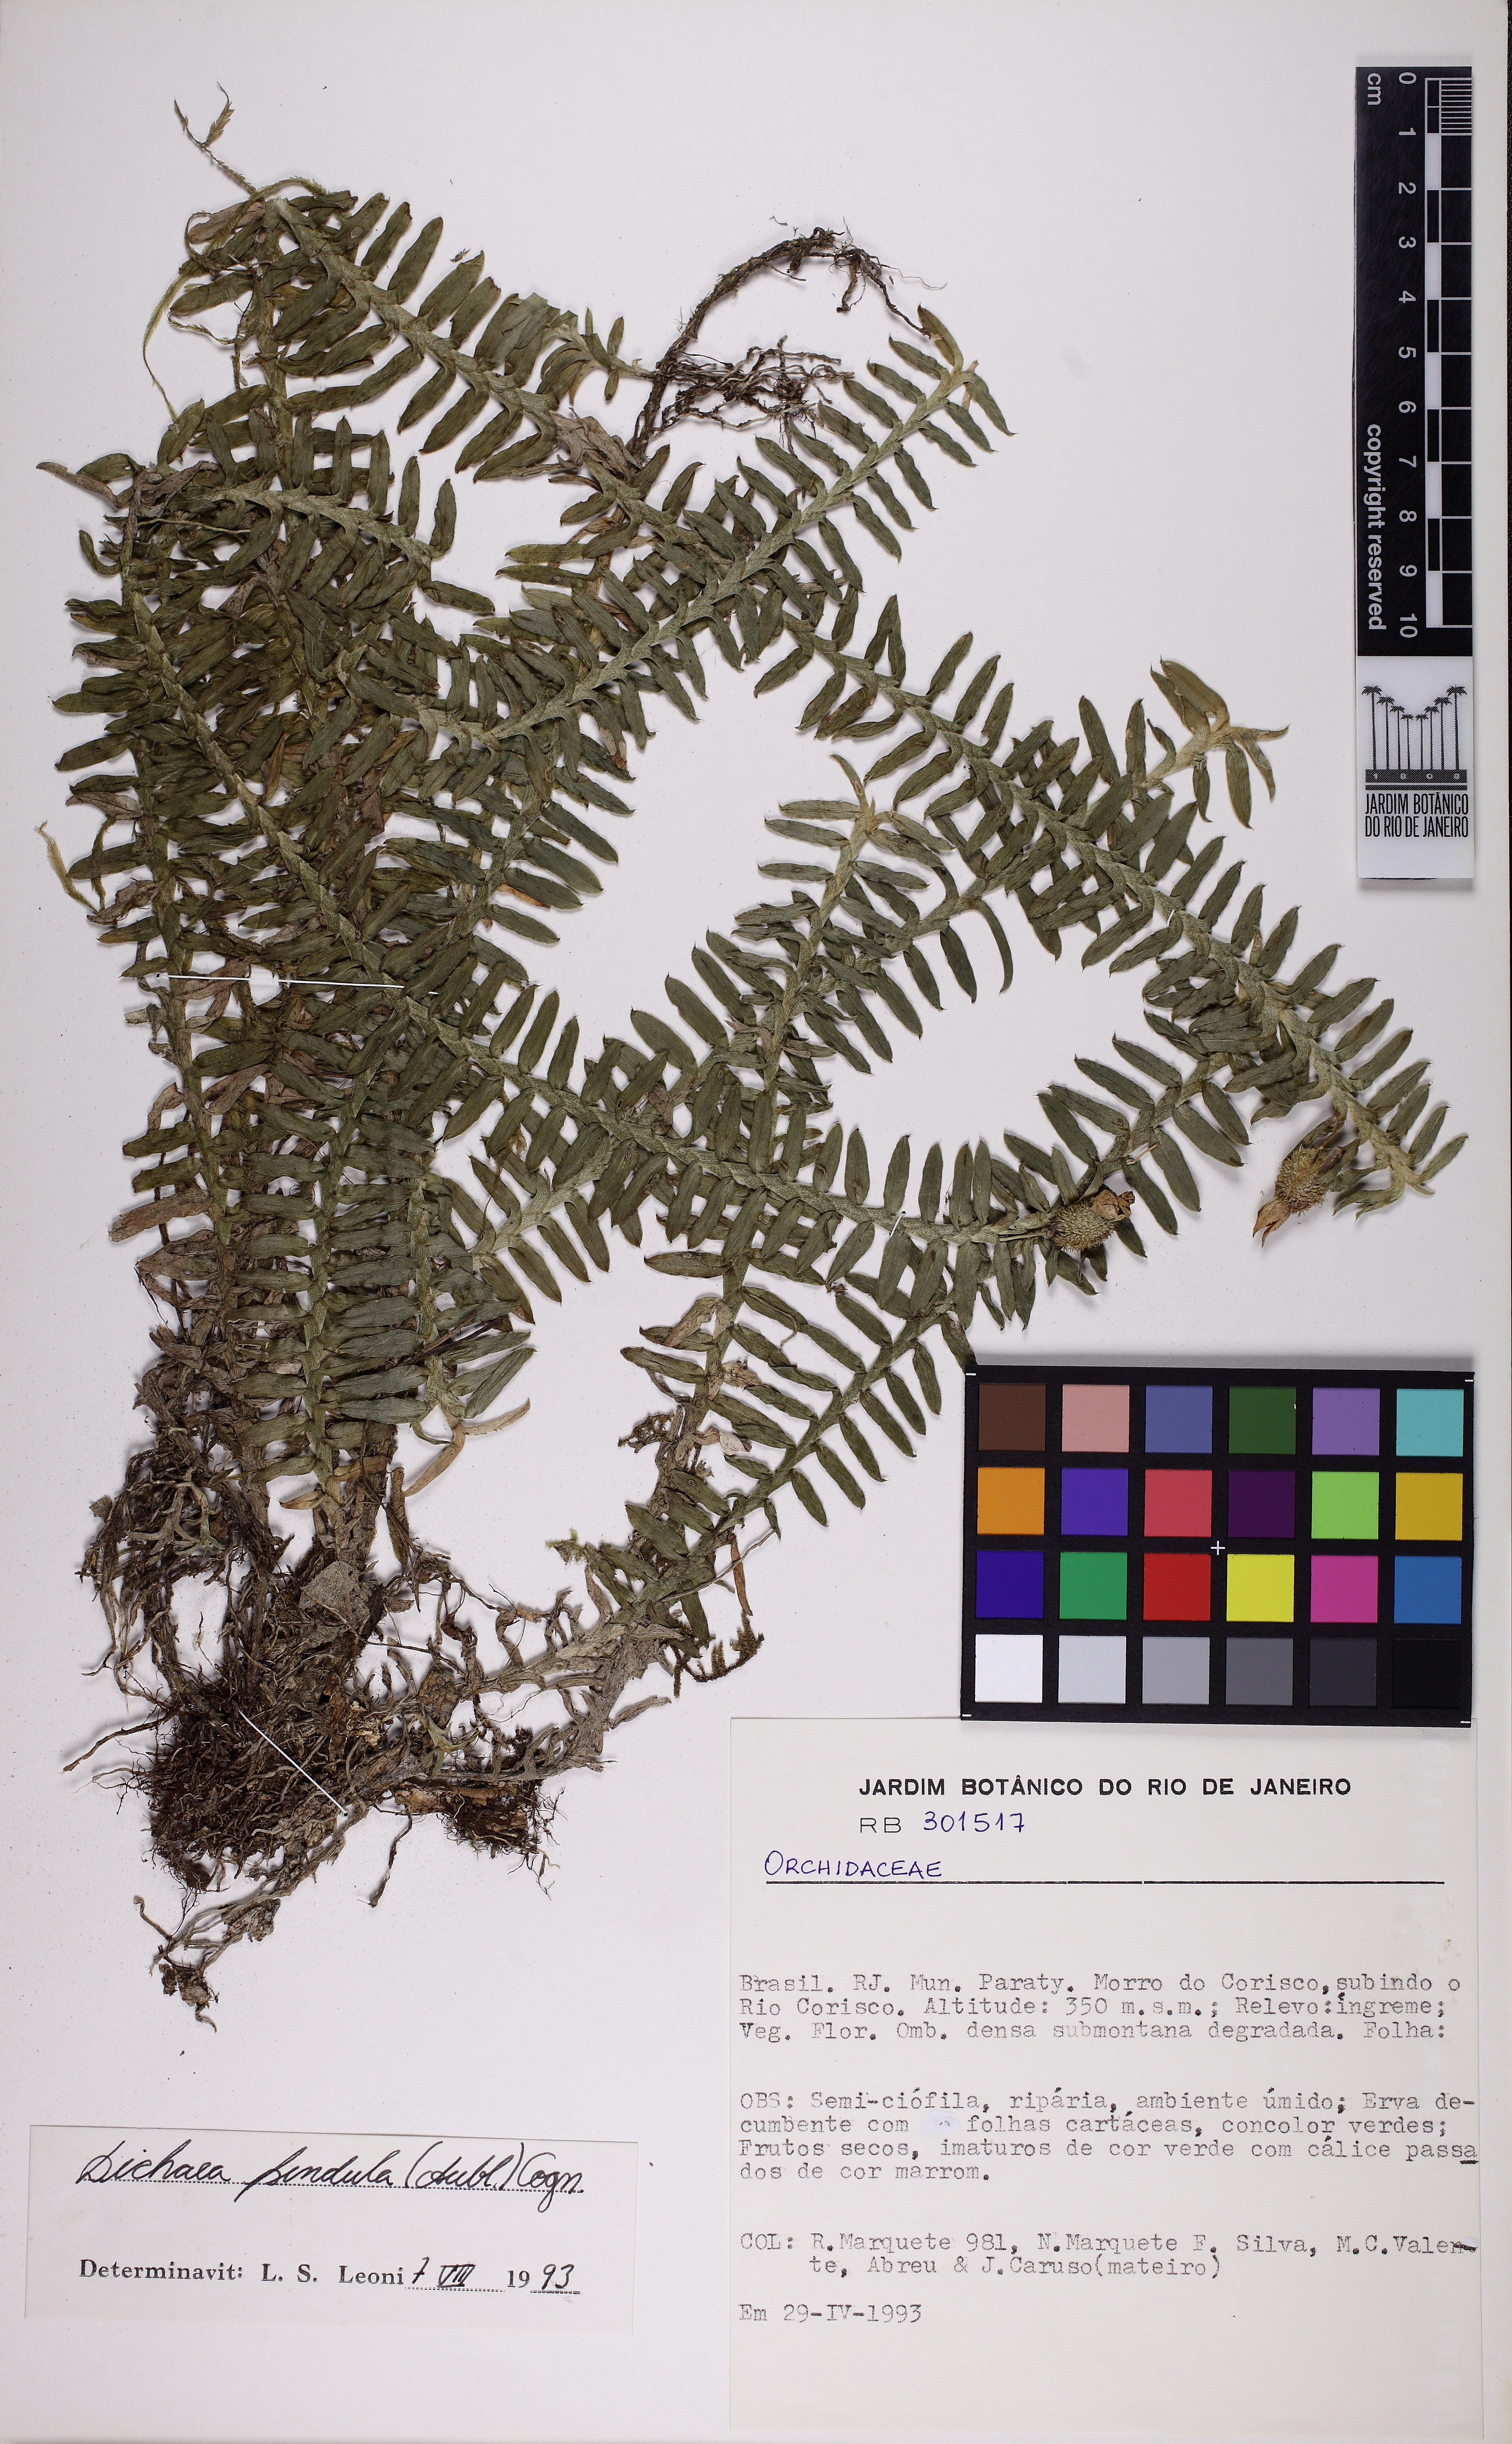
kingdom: Plantae
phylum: Tracheophyta
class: Liliopsida
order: Asparagales
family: Orchidaceae
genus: Dichaea
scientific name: Dichaea pendula
